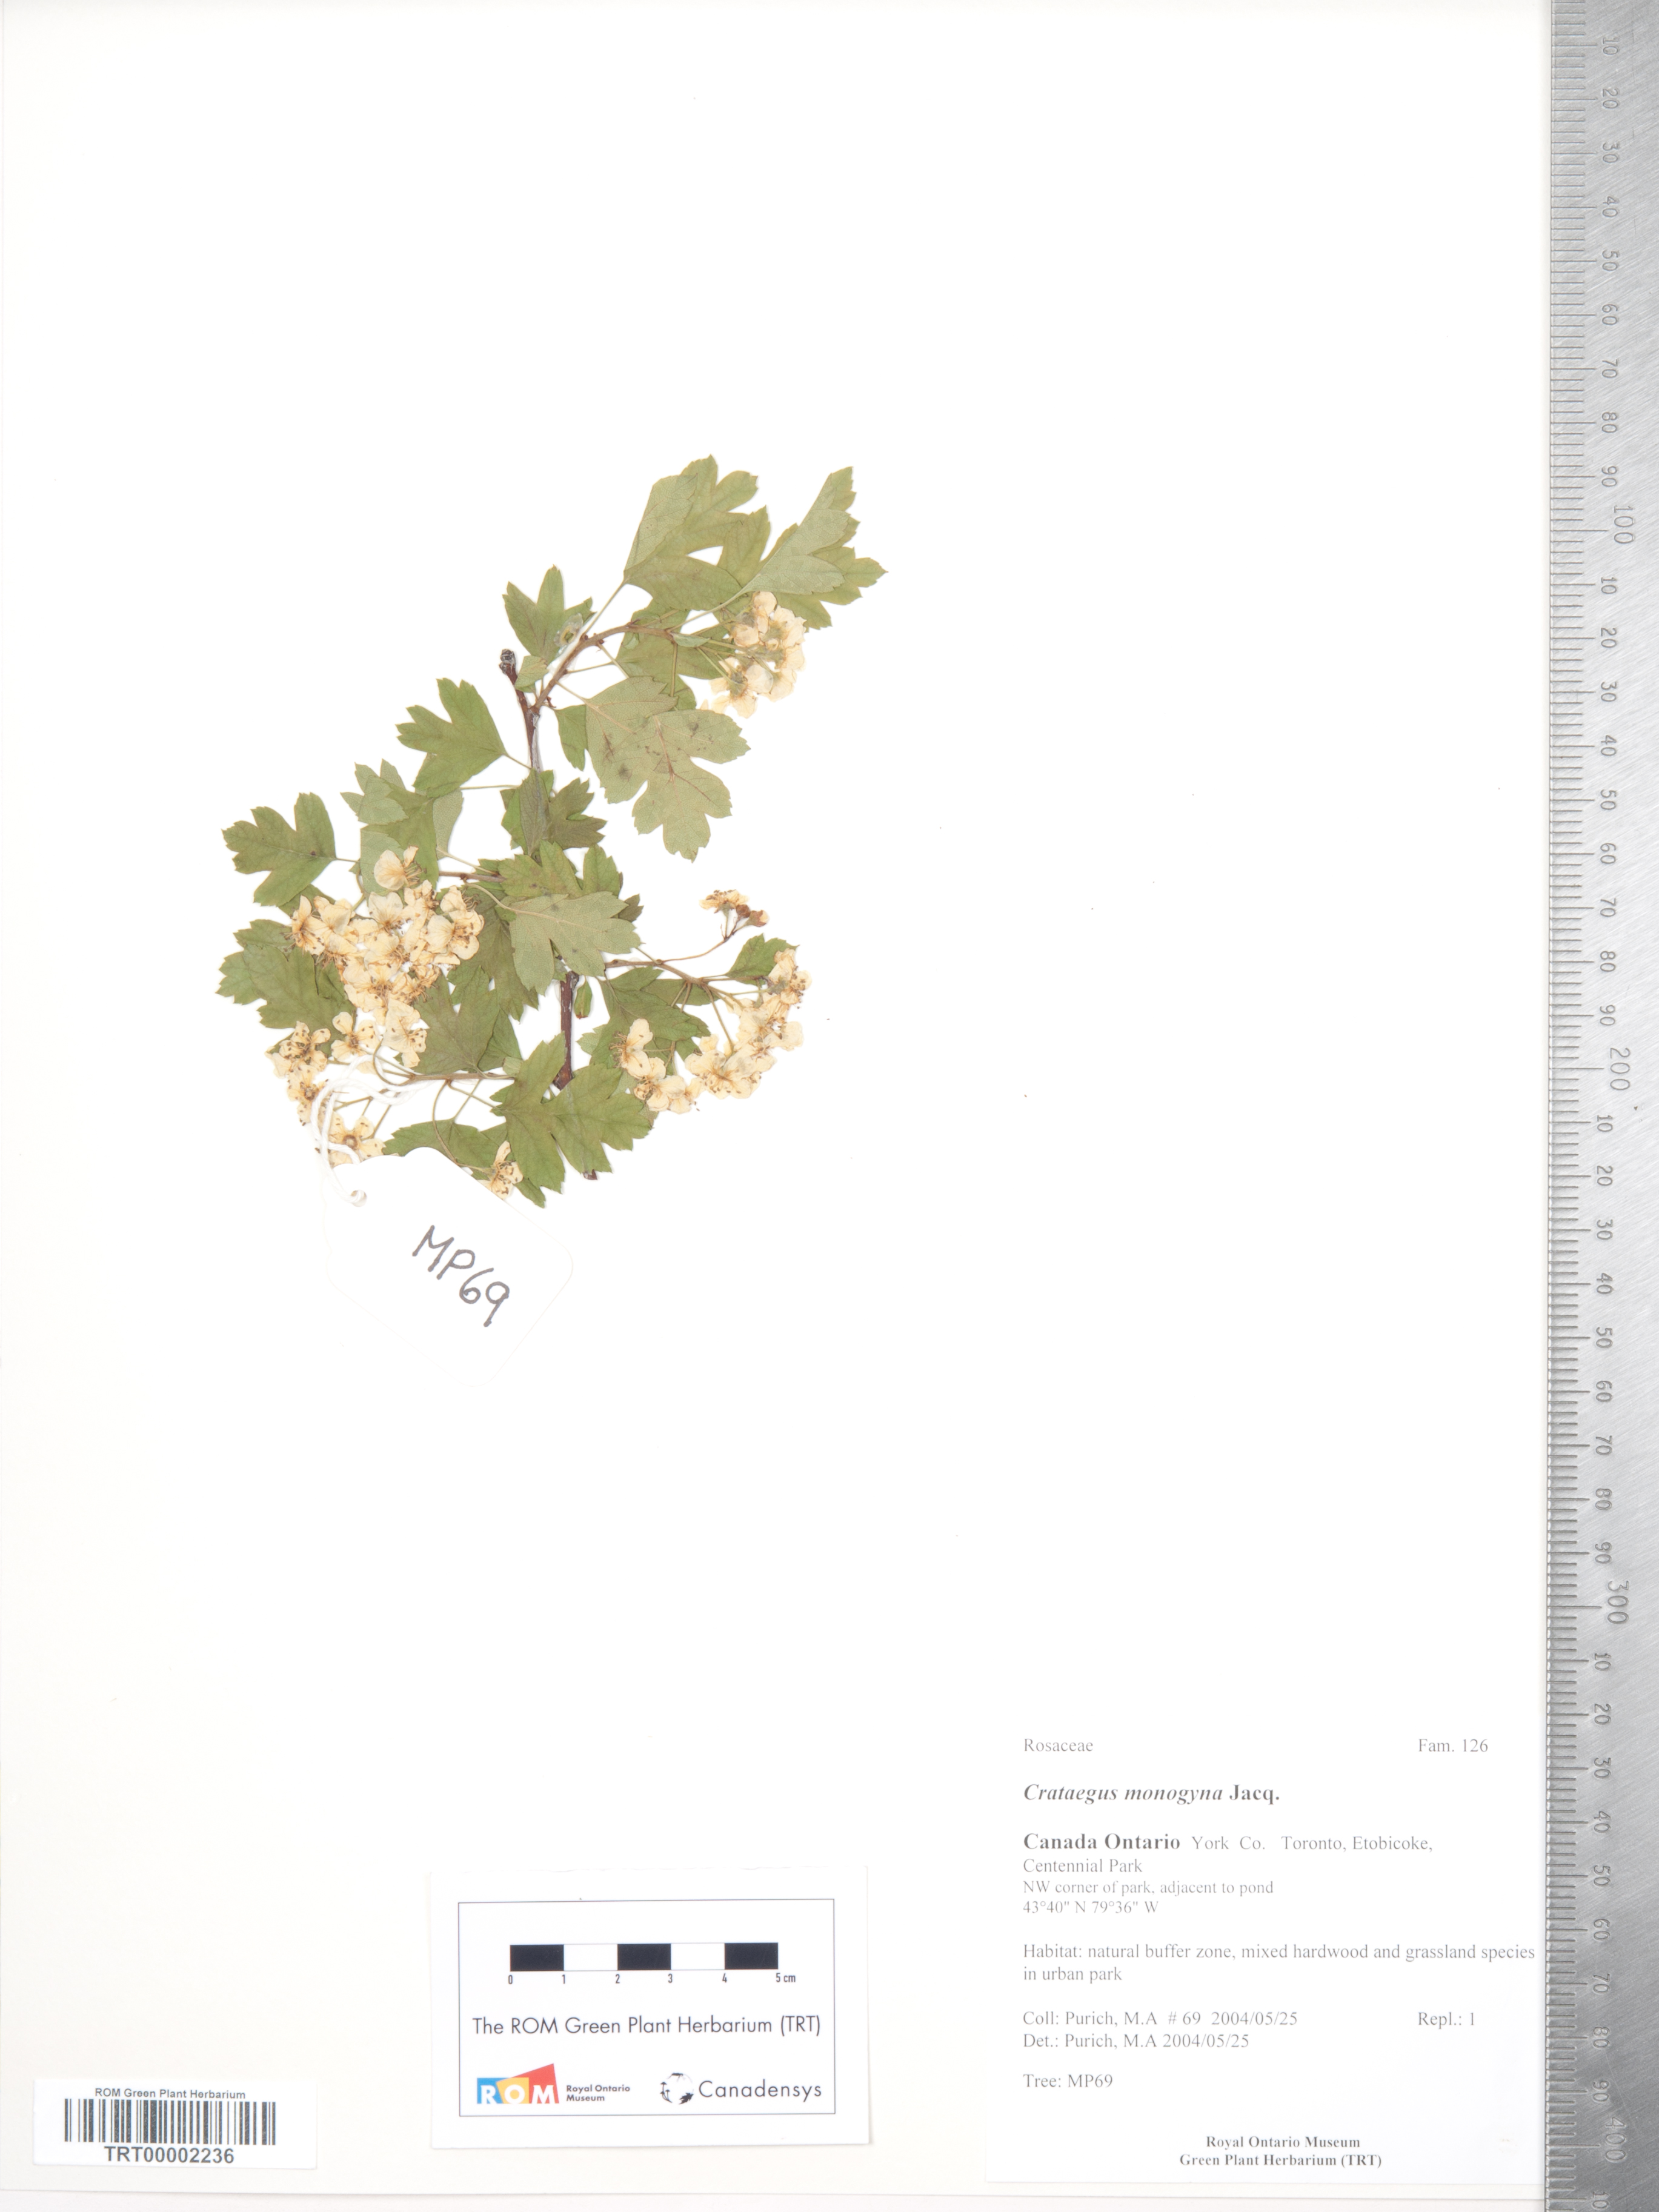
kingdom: Plantae
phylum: Tracheophyta
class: Magnoliopsida
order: Rosales
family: Rosaceae
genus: Crataegus
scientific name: Crataegus monogyna
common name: Hawthorn
